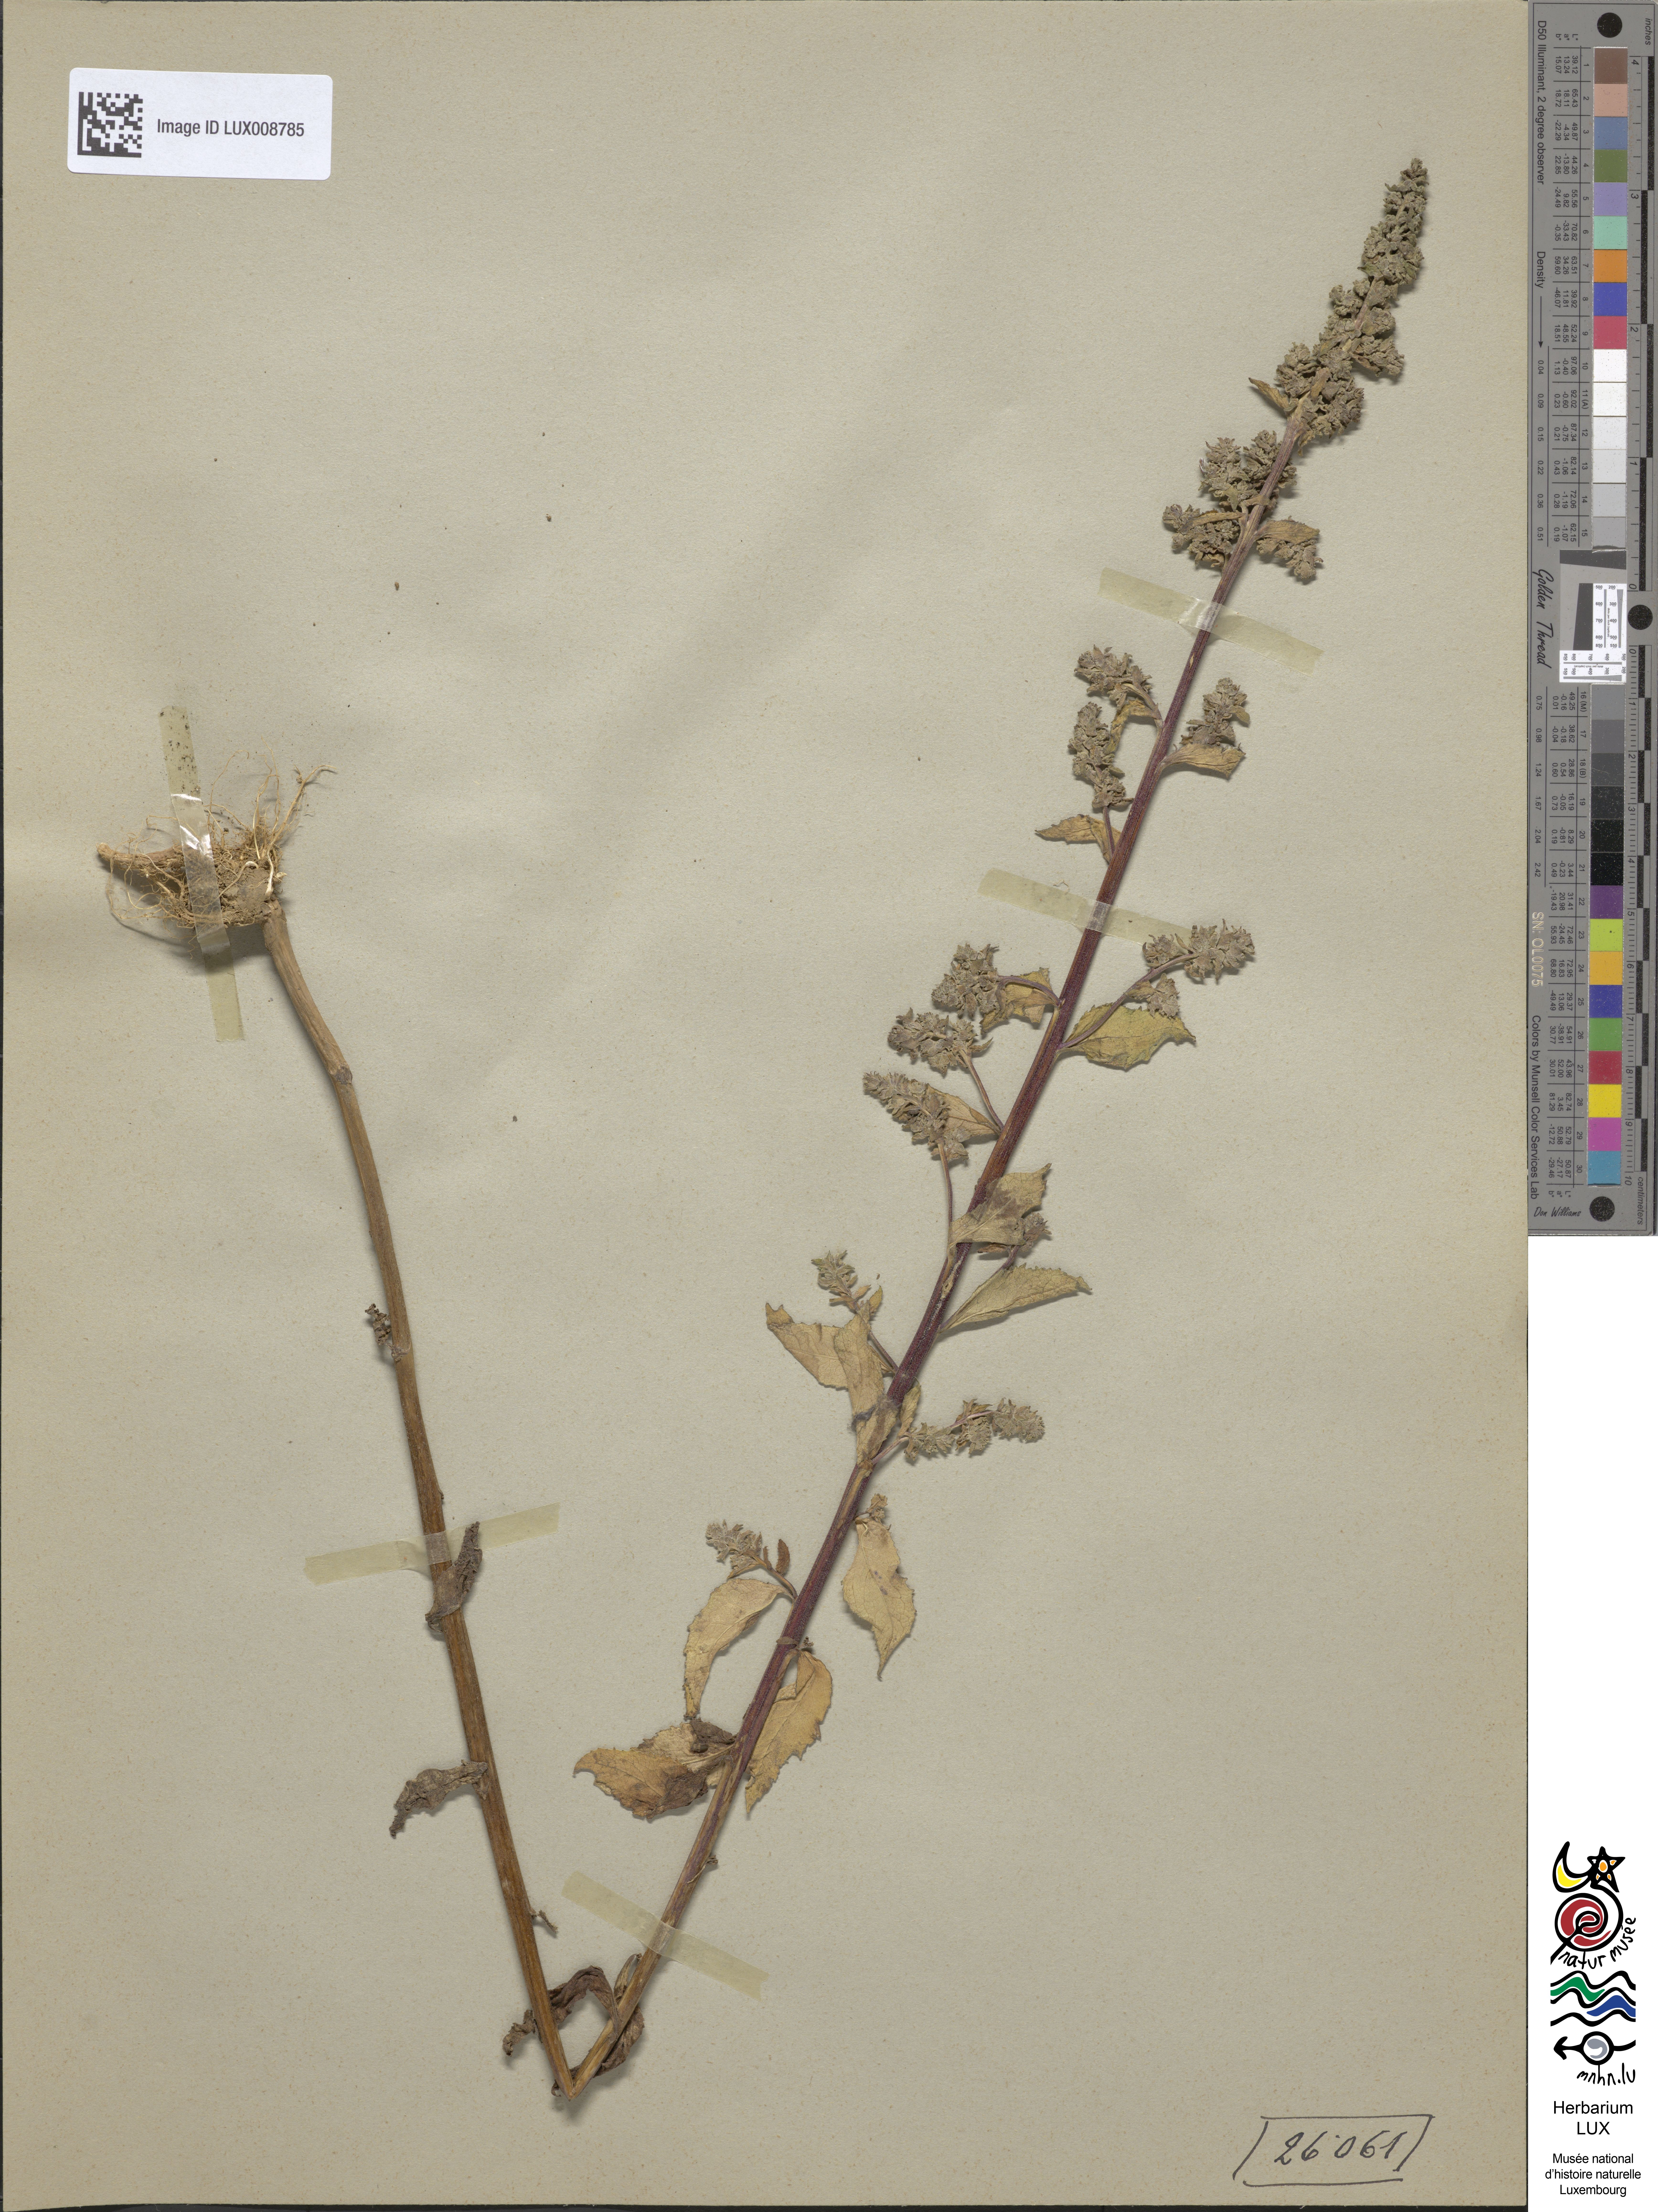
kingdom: Plantae
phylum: Tracheophyta
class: Magnoliopsida
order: Asterales
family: Campanulaceae
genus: Campanula
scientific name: Campanula rapunculoides
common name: Creeping bellflower
